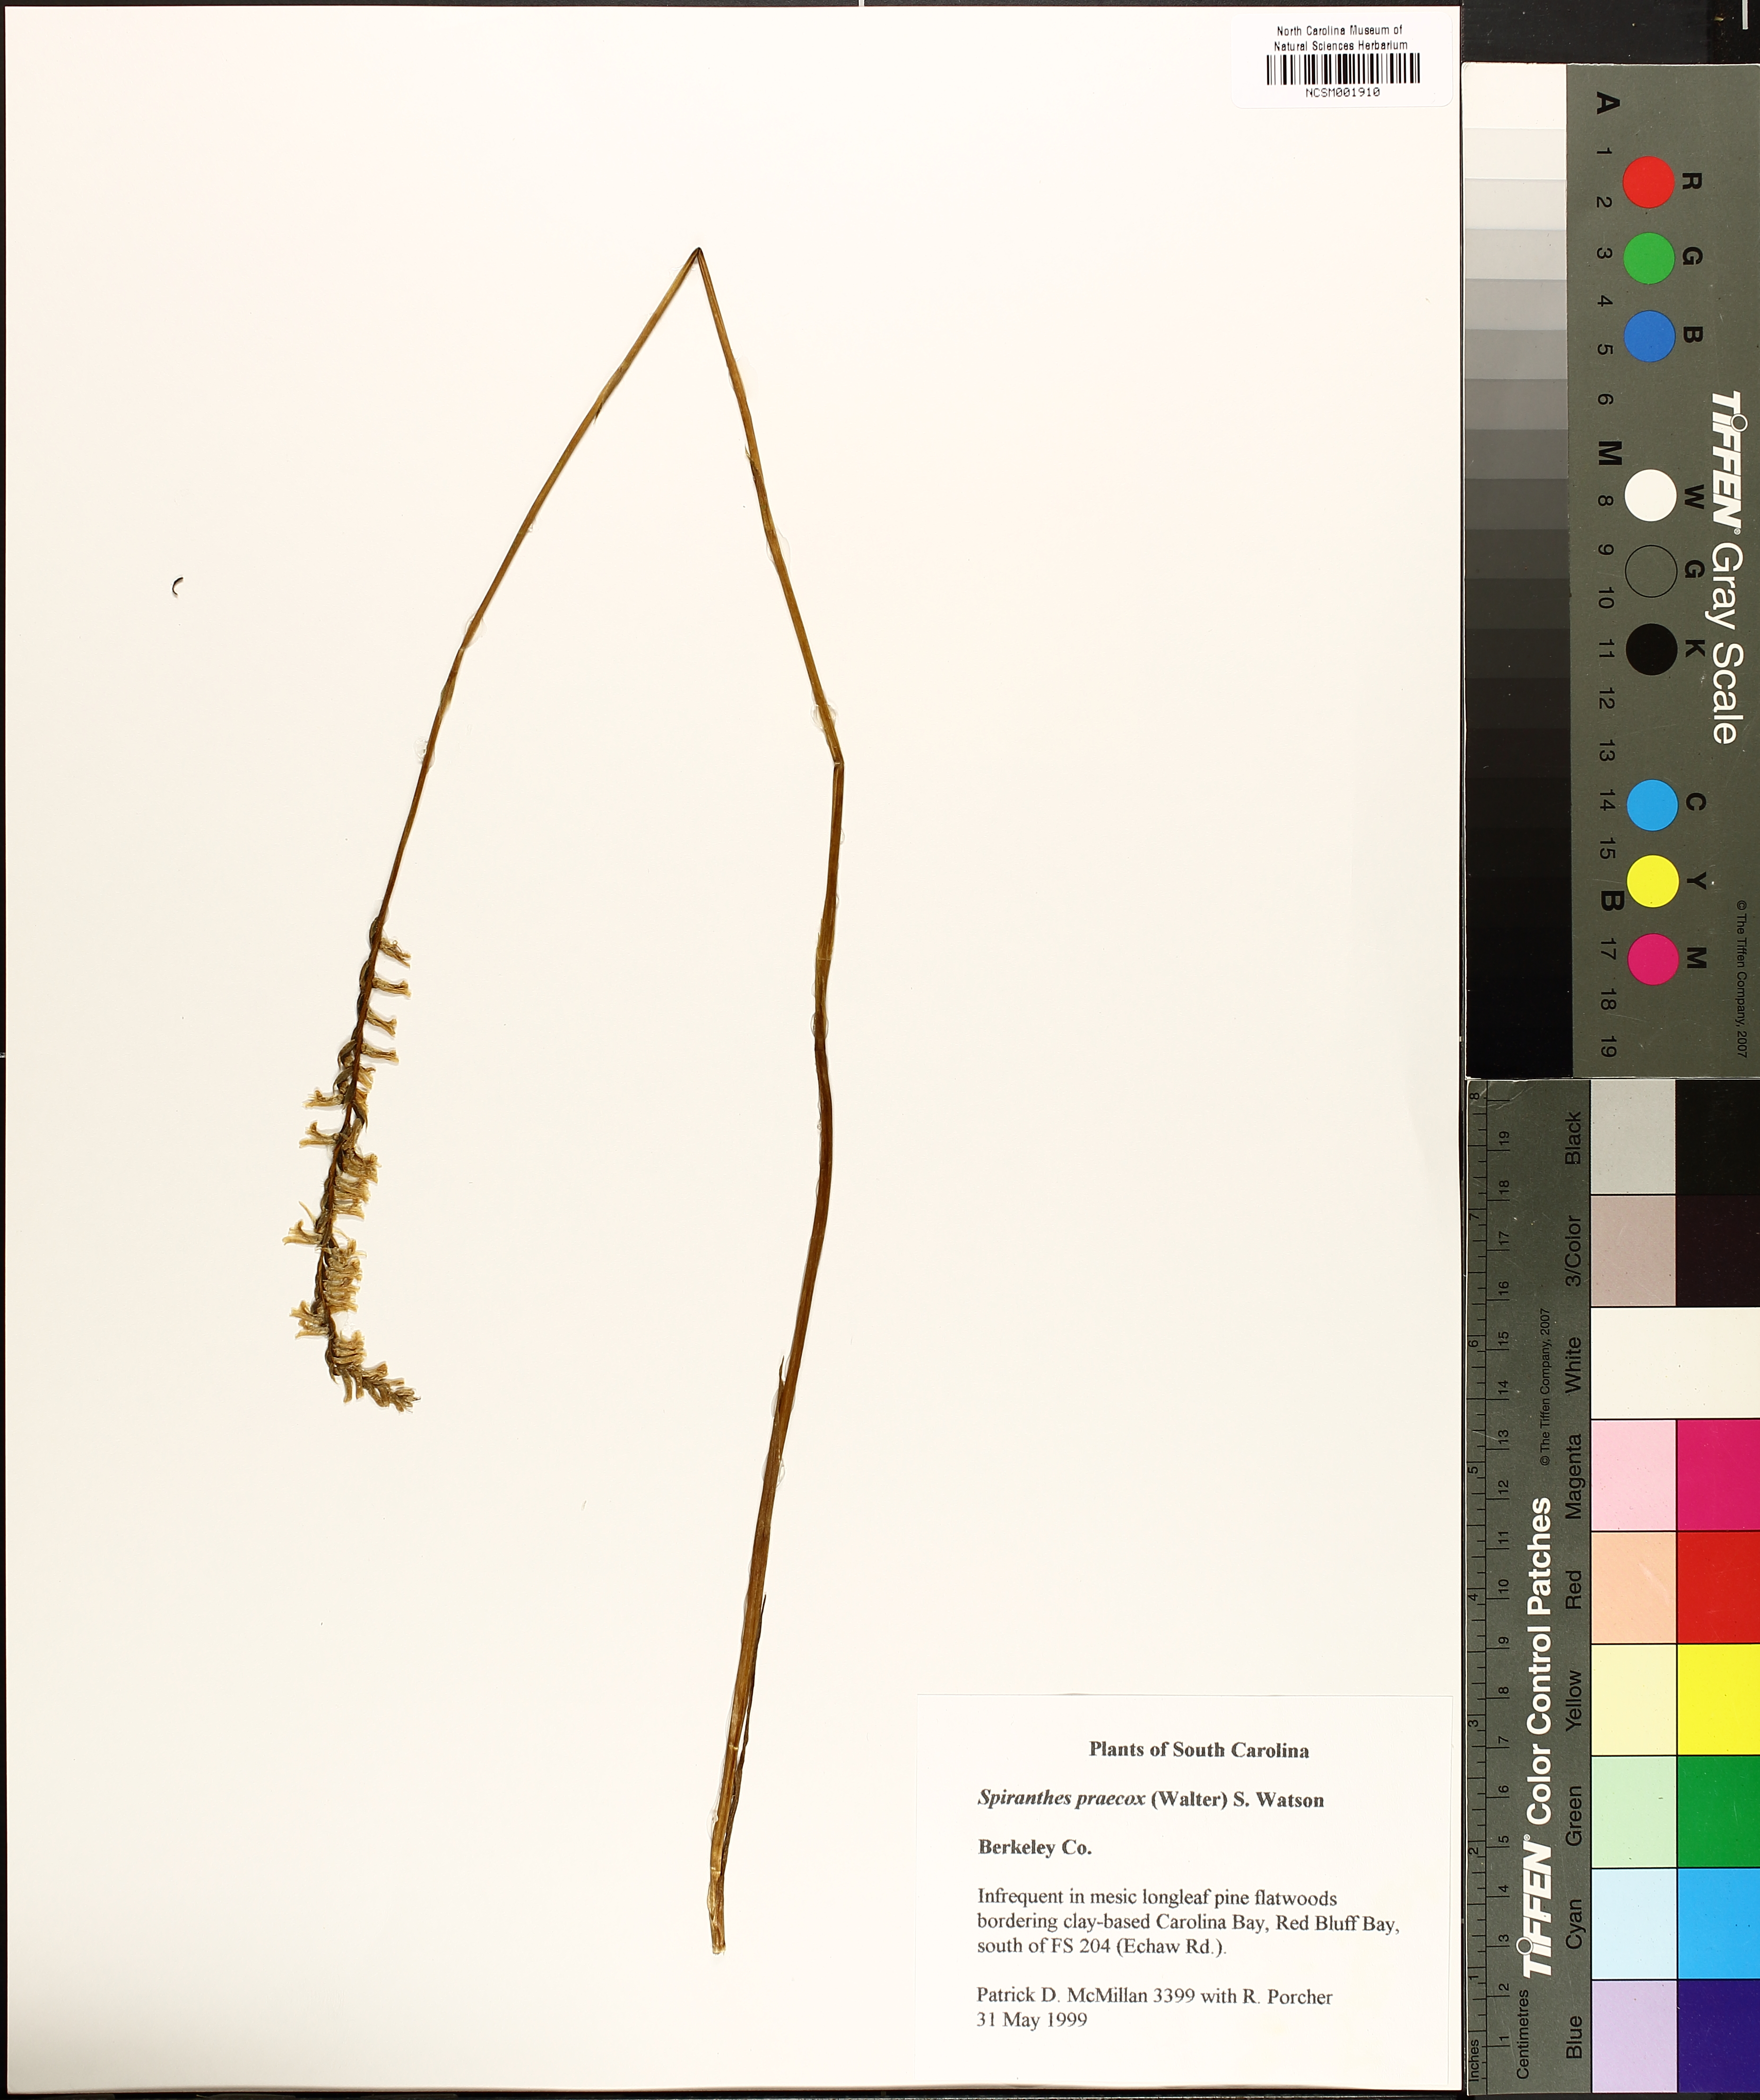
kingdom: Plantae
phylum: Tracheophyta
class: Liliopsida
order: Asparagales
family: Orchidaceae
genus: Spiranthes
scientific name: Spiranthes praecox
